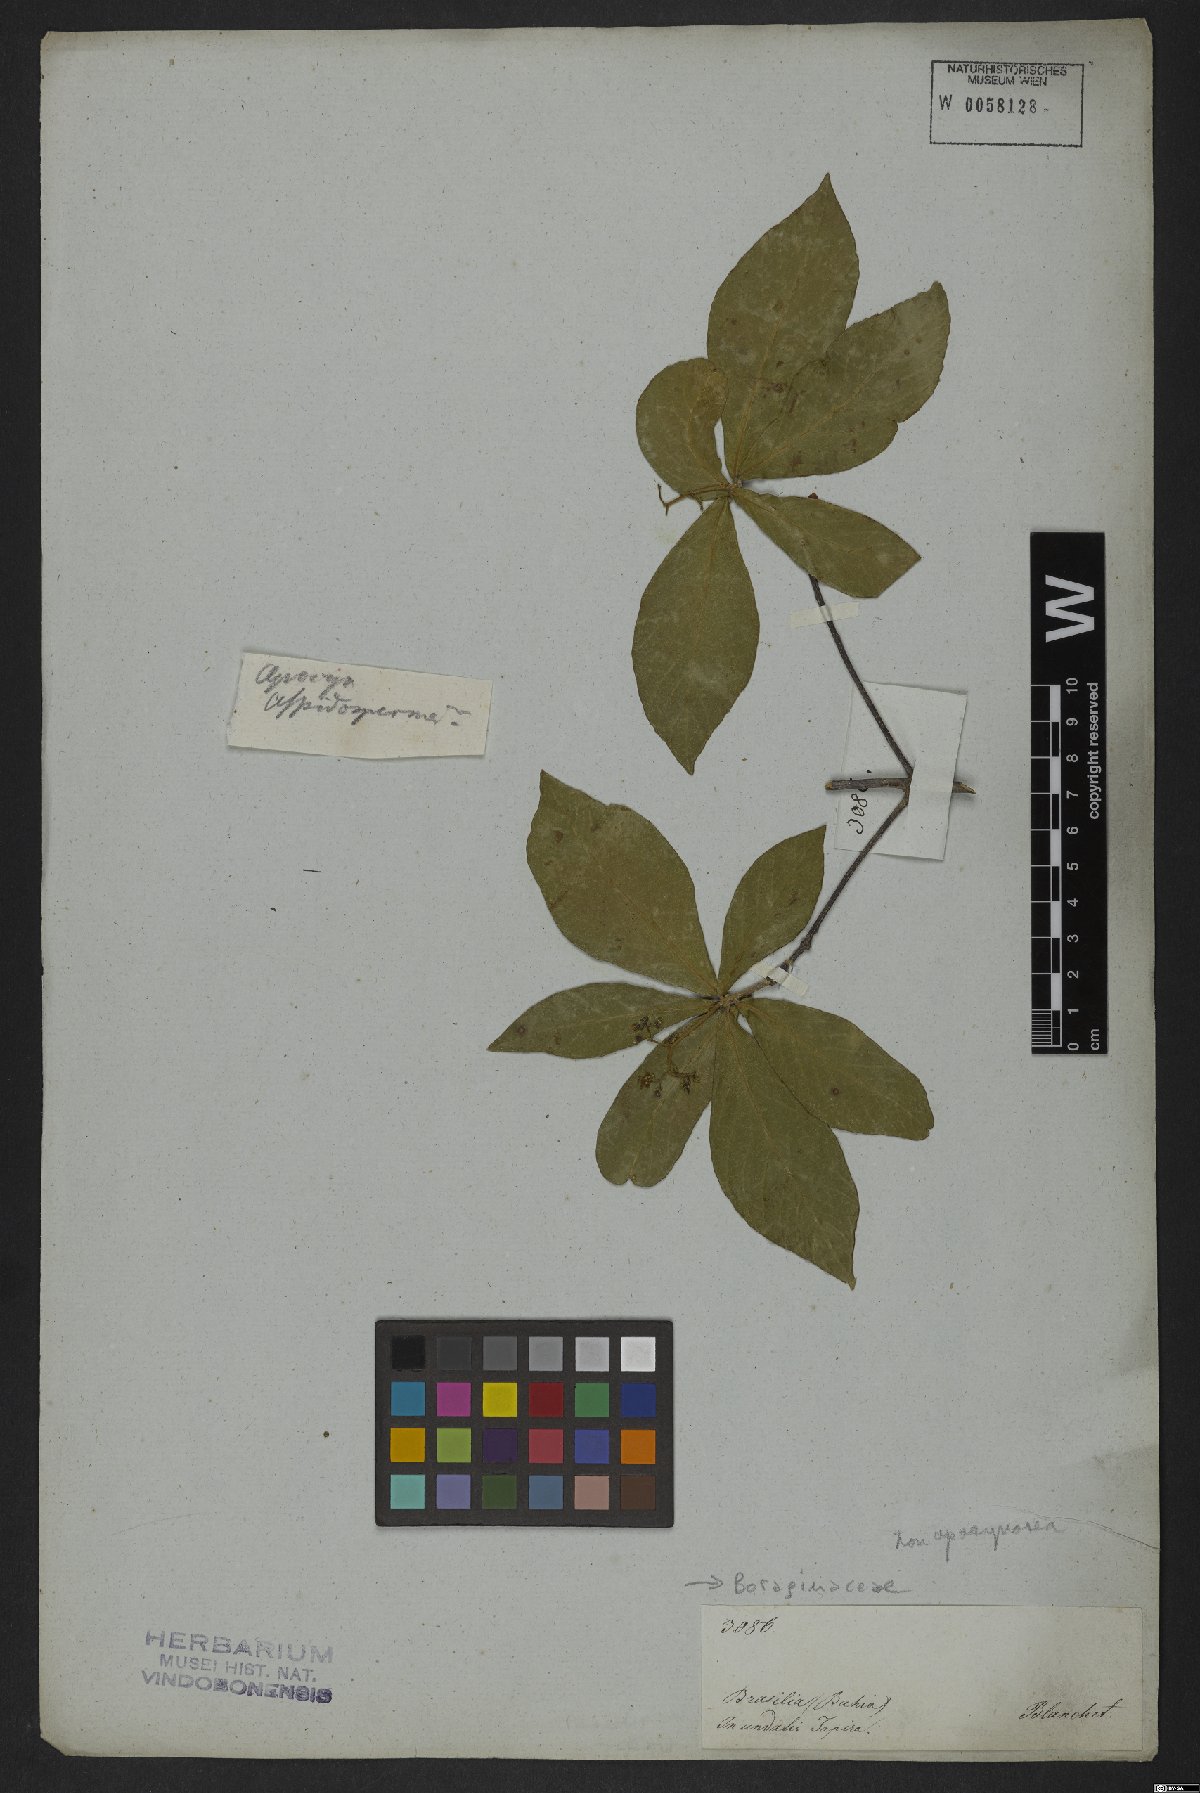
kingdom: Plantae
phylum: Tracheophyta
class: Magnoliopsida
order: Boraginales
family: Boraginaceae
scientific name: Boraginaceae
